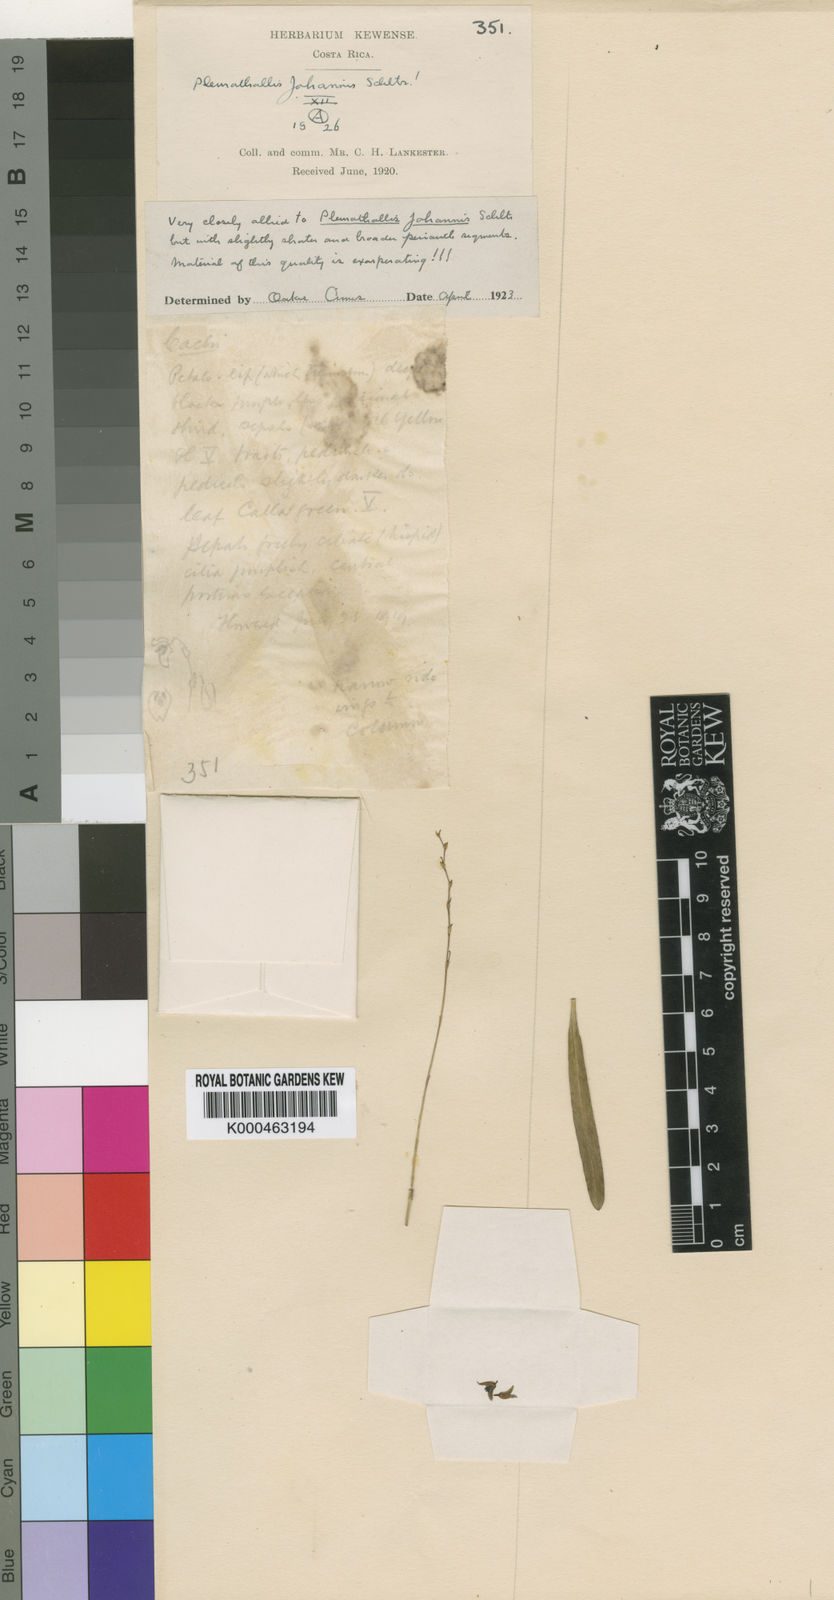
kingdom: Plantae
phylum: Tracheophyta
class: Liliopsida
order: Asparagales
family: Orchidaceae
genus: Stelis
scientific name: Stelis segoviensis
